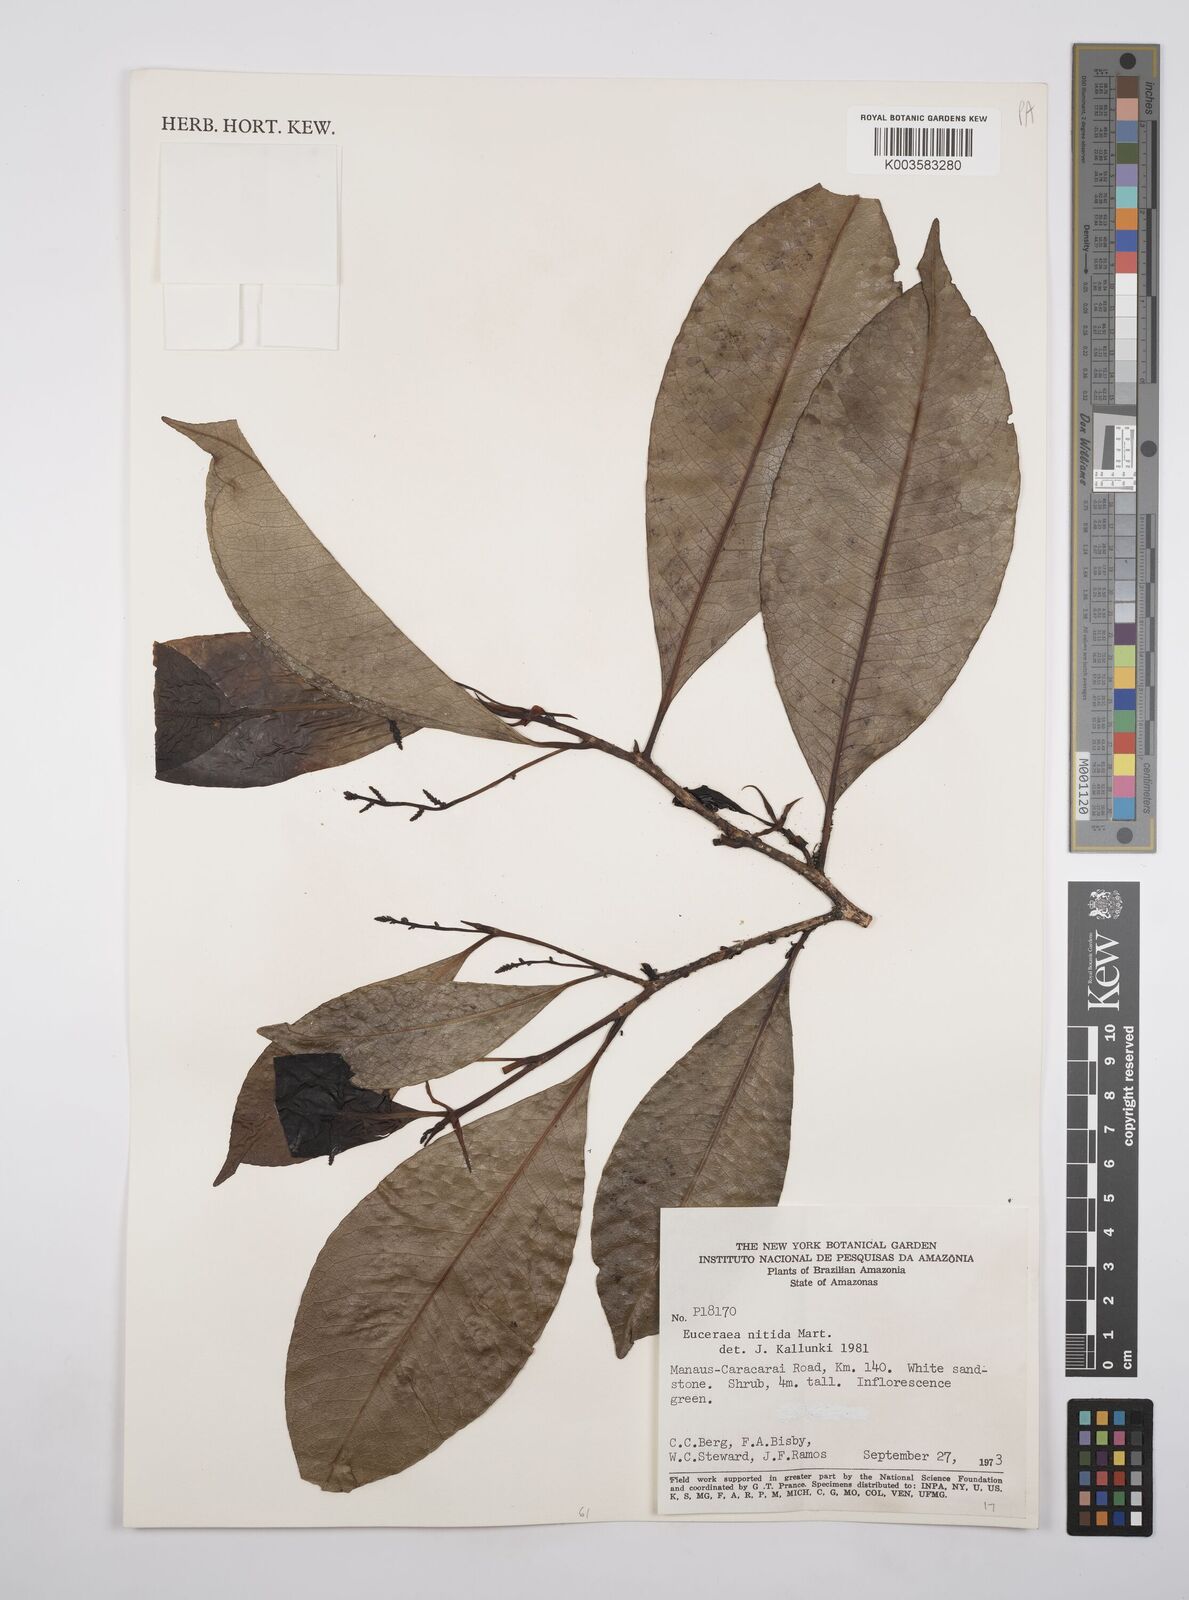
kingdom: Plantae
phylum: Tracheophyta
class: Magnoliopsida
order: Malpighiales
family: Salicaceae
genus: Casearia
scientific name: Casearia euceraea
